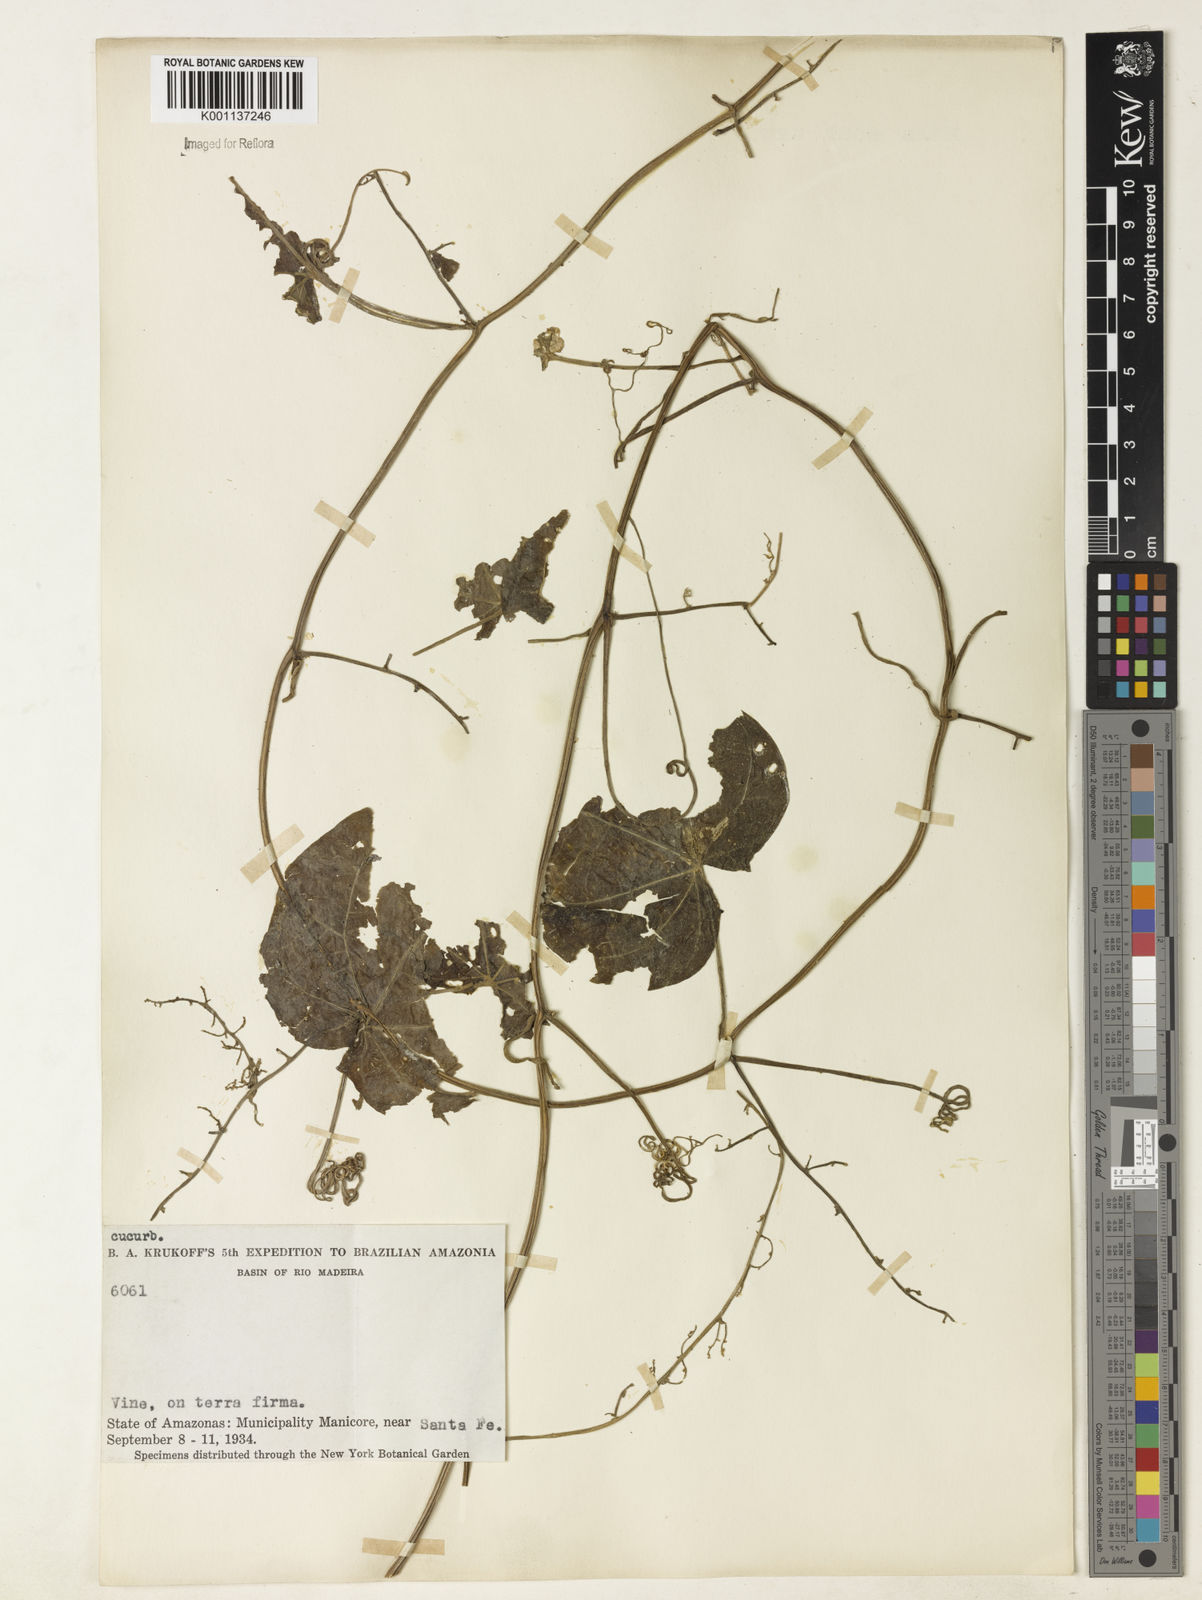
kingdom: Plantae
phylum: Tracheophyta
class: Magnoliopsida
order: Cucurbitales
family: Cucurbitaceae
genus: Sicydium
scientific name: Sicydium diffusum
